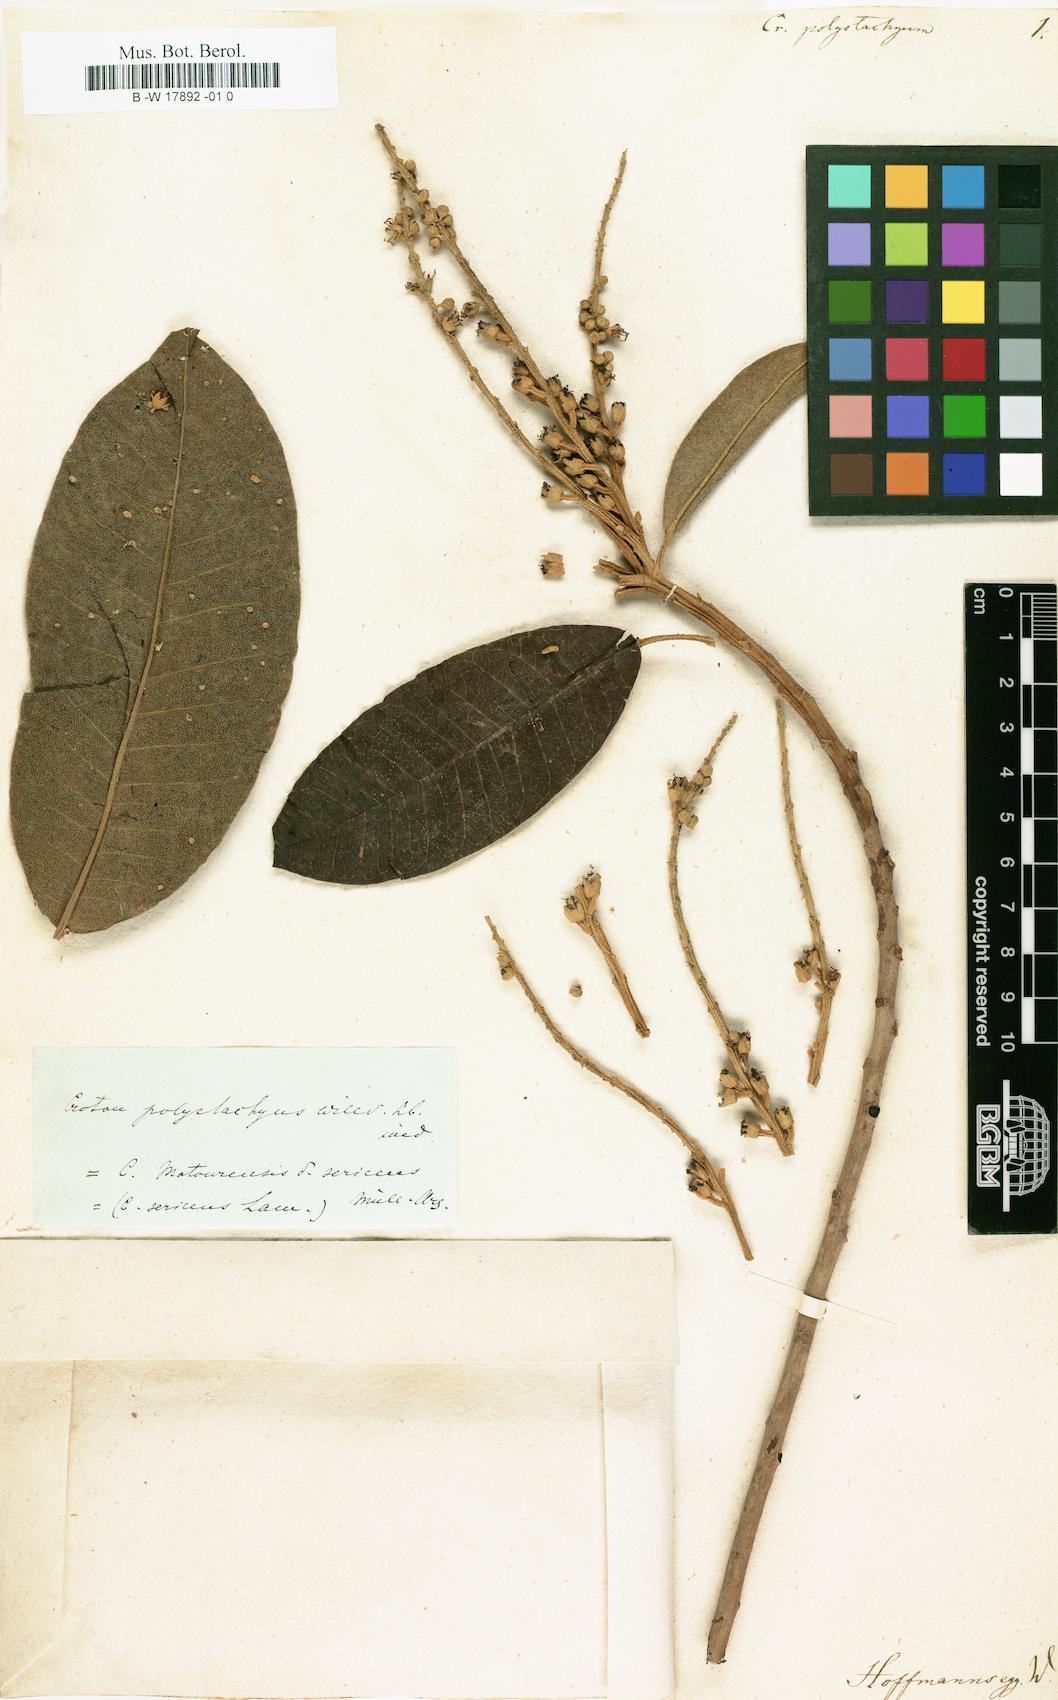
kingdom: Plantae
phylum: Tracheophyta
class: Magnoliopsida
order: Malpighiales
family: Euphorbiaceae
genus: Croton
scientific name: Croton
